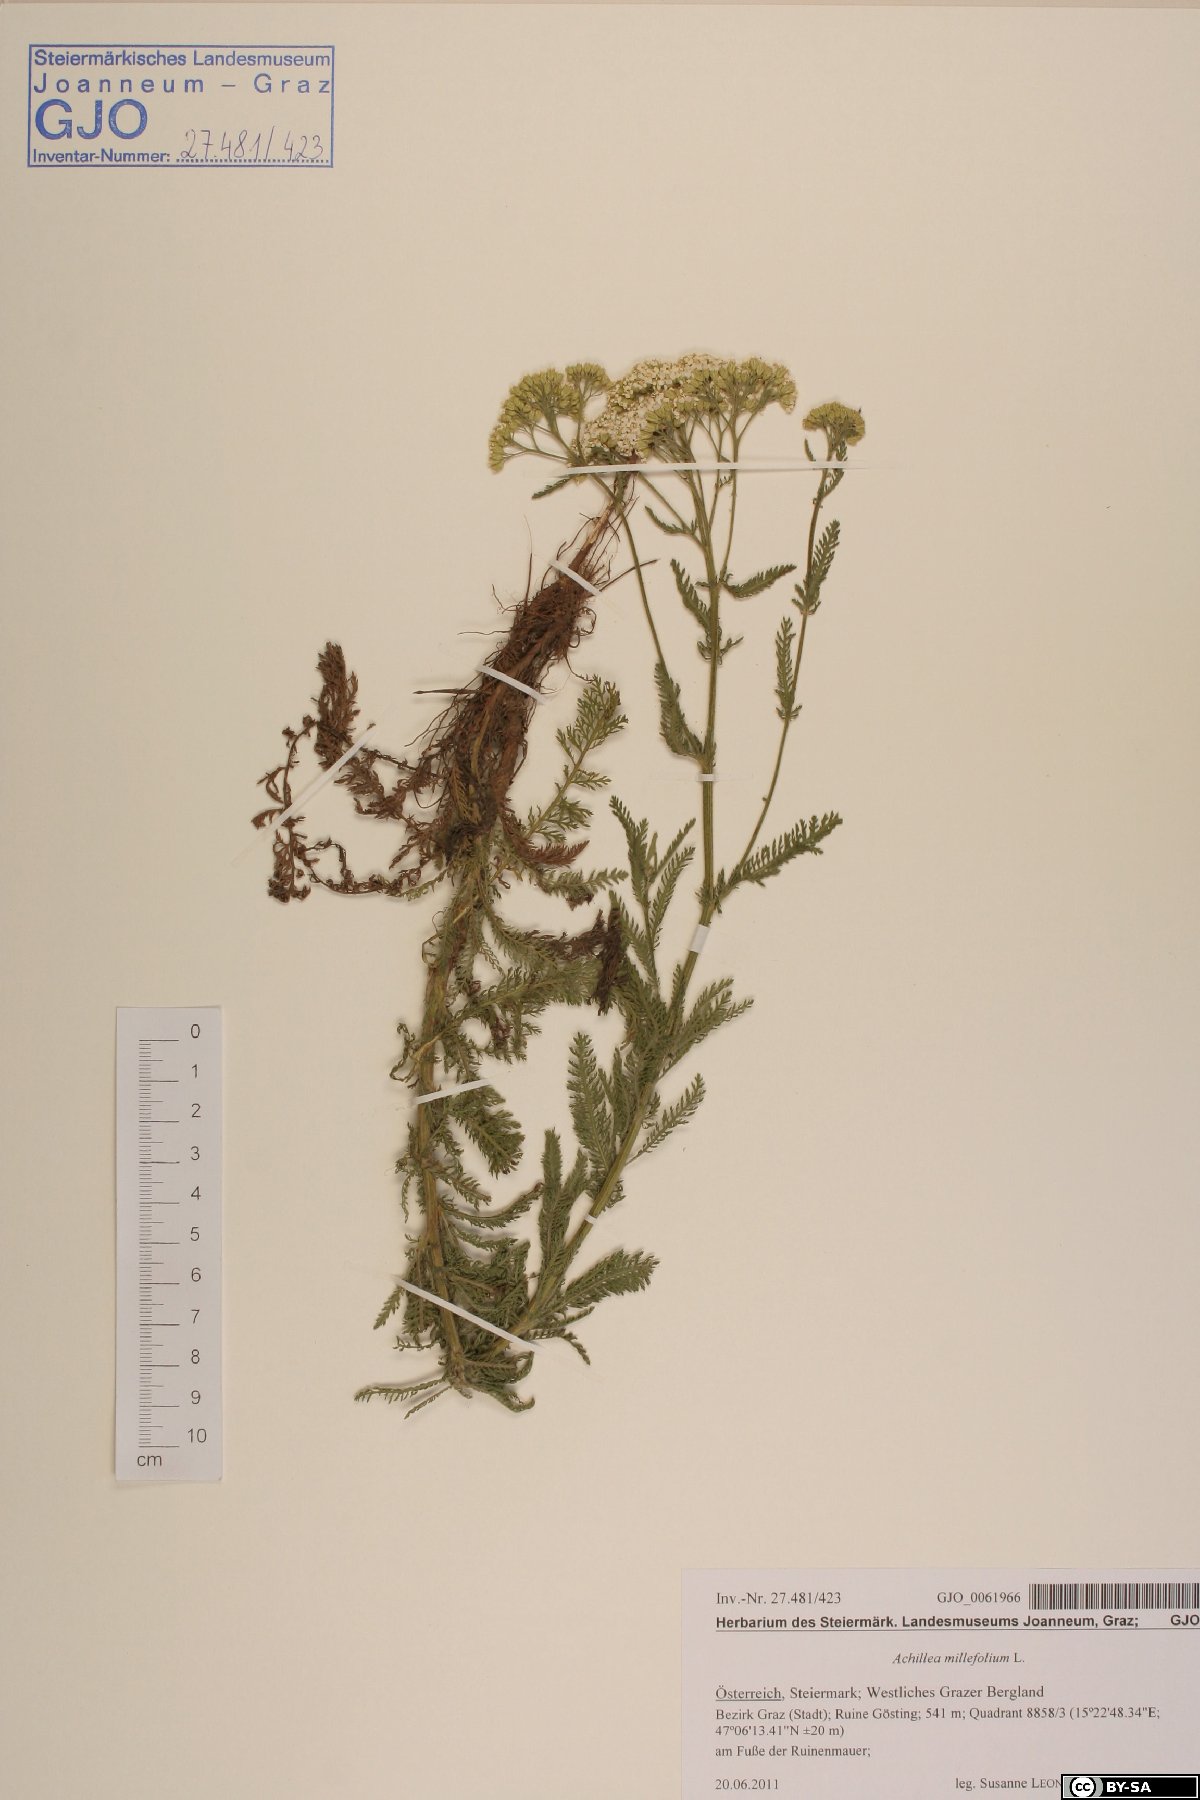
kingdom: Plantae
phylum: Tracheophyta
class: Magnoliopsida
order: Asterales
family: Asteraceae
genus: Achillea
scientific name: Achillea millefolium
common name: Yarrow
